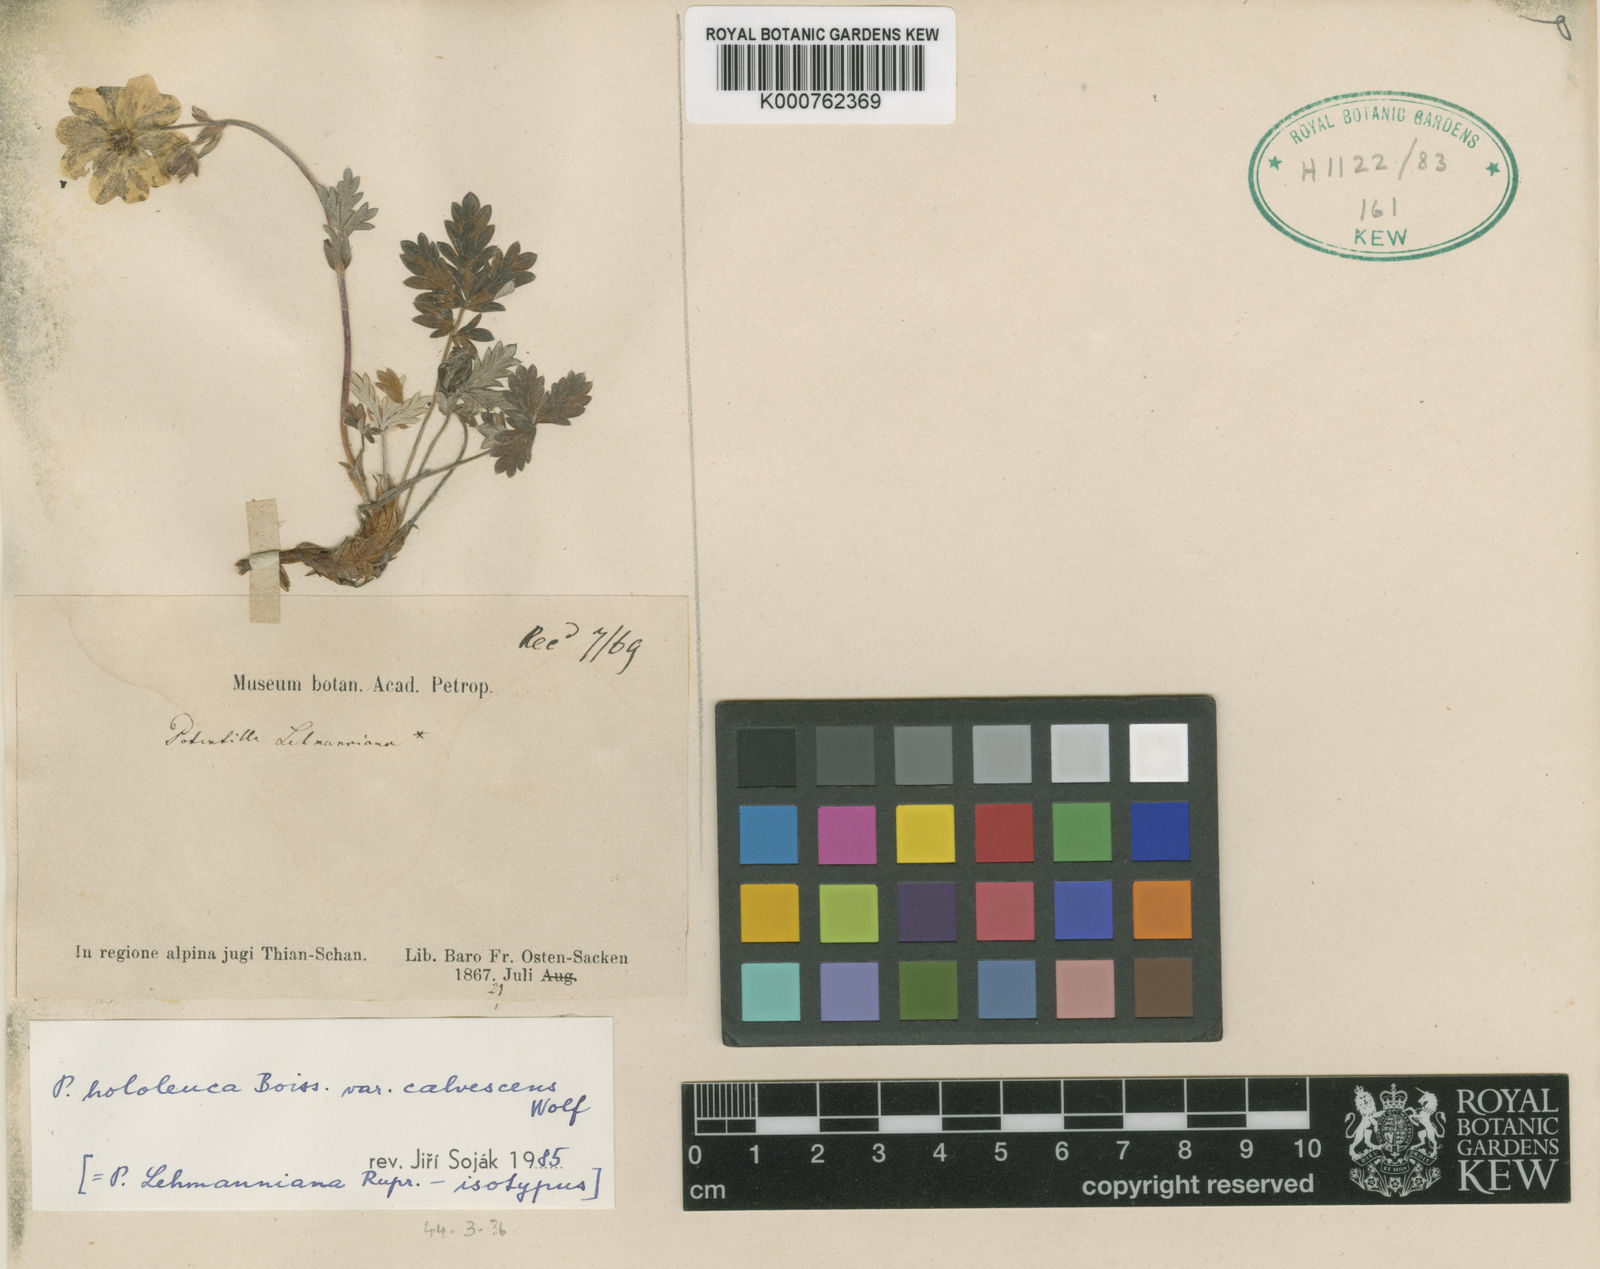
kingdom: Plantae
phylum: Tracheophyta
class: Magnoliopsida
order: Rosales
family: Rosaceae
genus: Potentilla
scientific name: Potentilla
